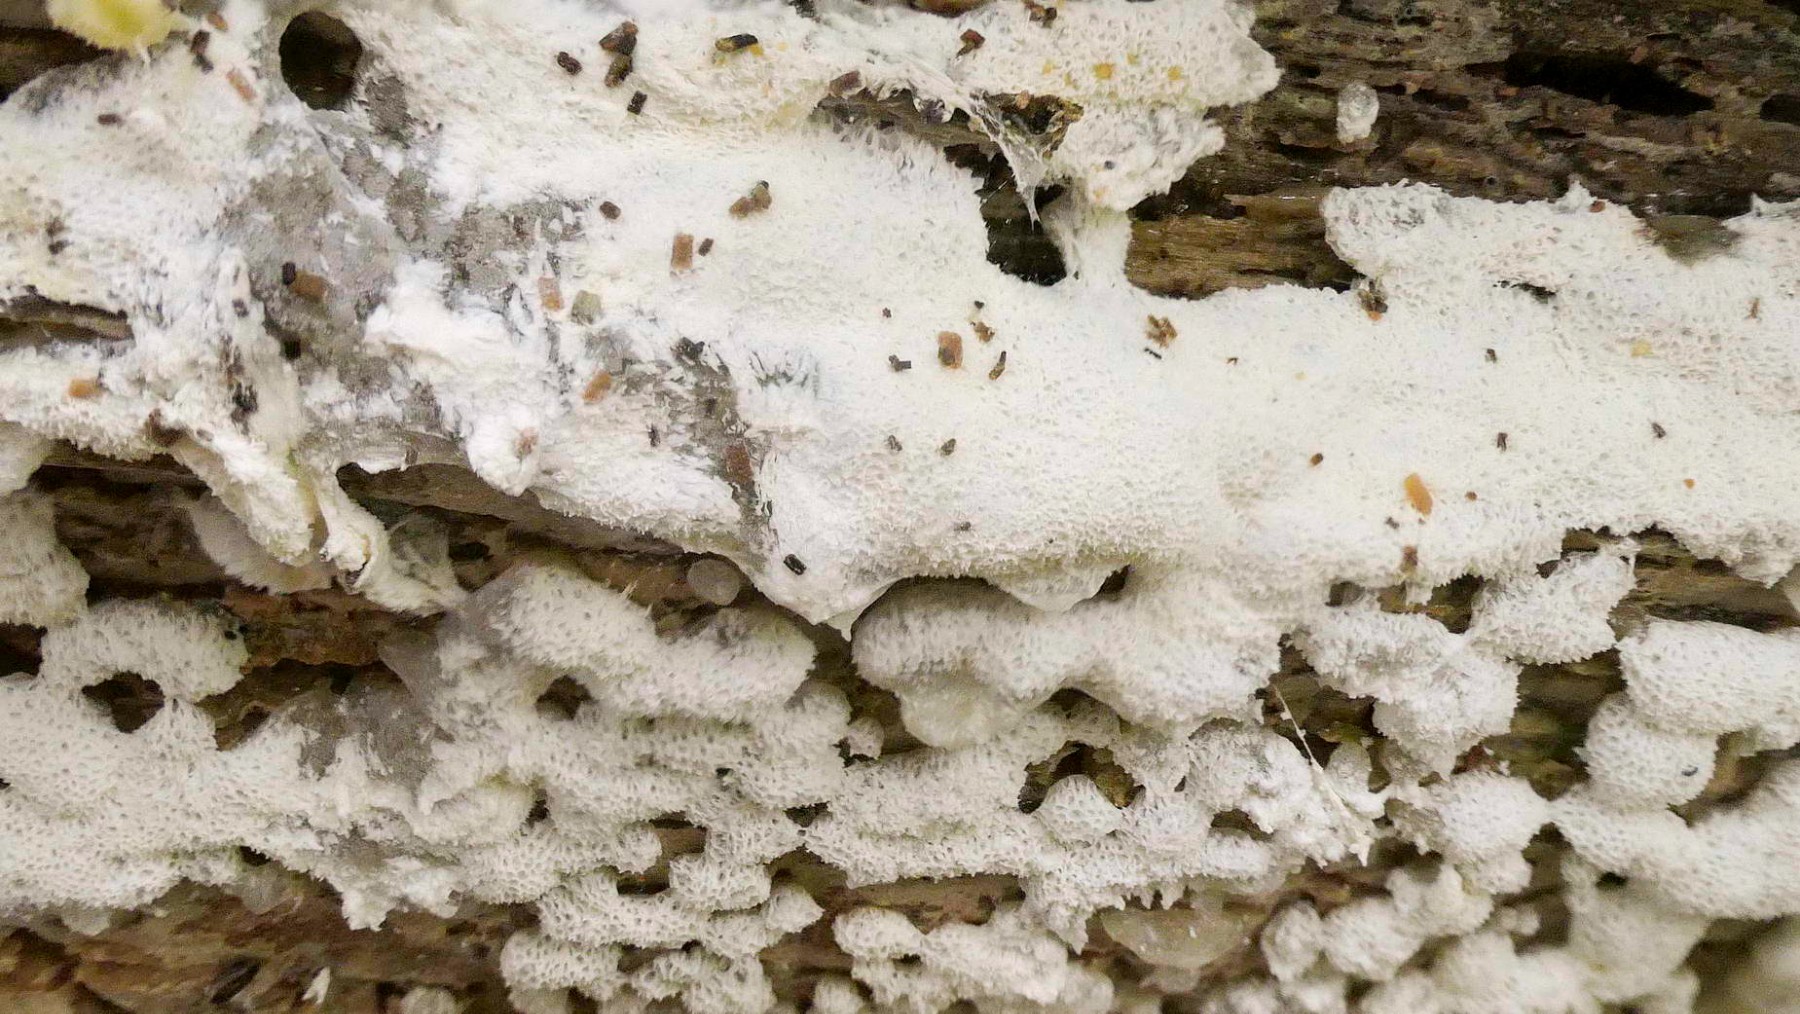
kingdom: Protozoa
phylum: Mycetozoa
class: Protosteliomycetes
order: Ceratiomyxales
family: Ceratiomyxaceae
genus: Ceratiomyxa
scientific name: Ceratiomyxa fruticulosa
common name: Honeycomb coral slime mold
